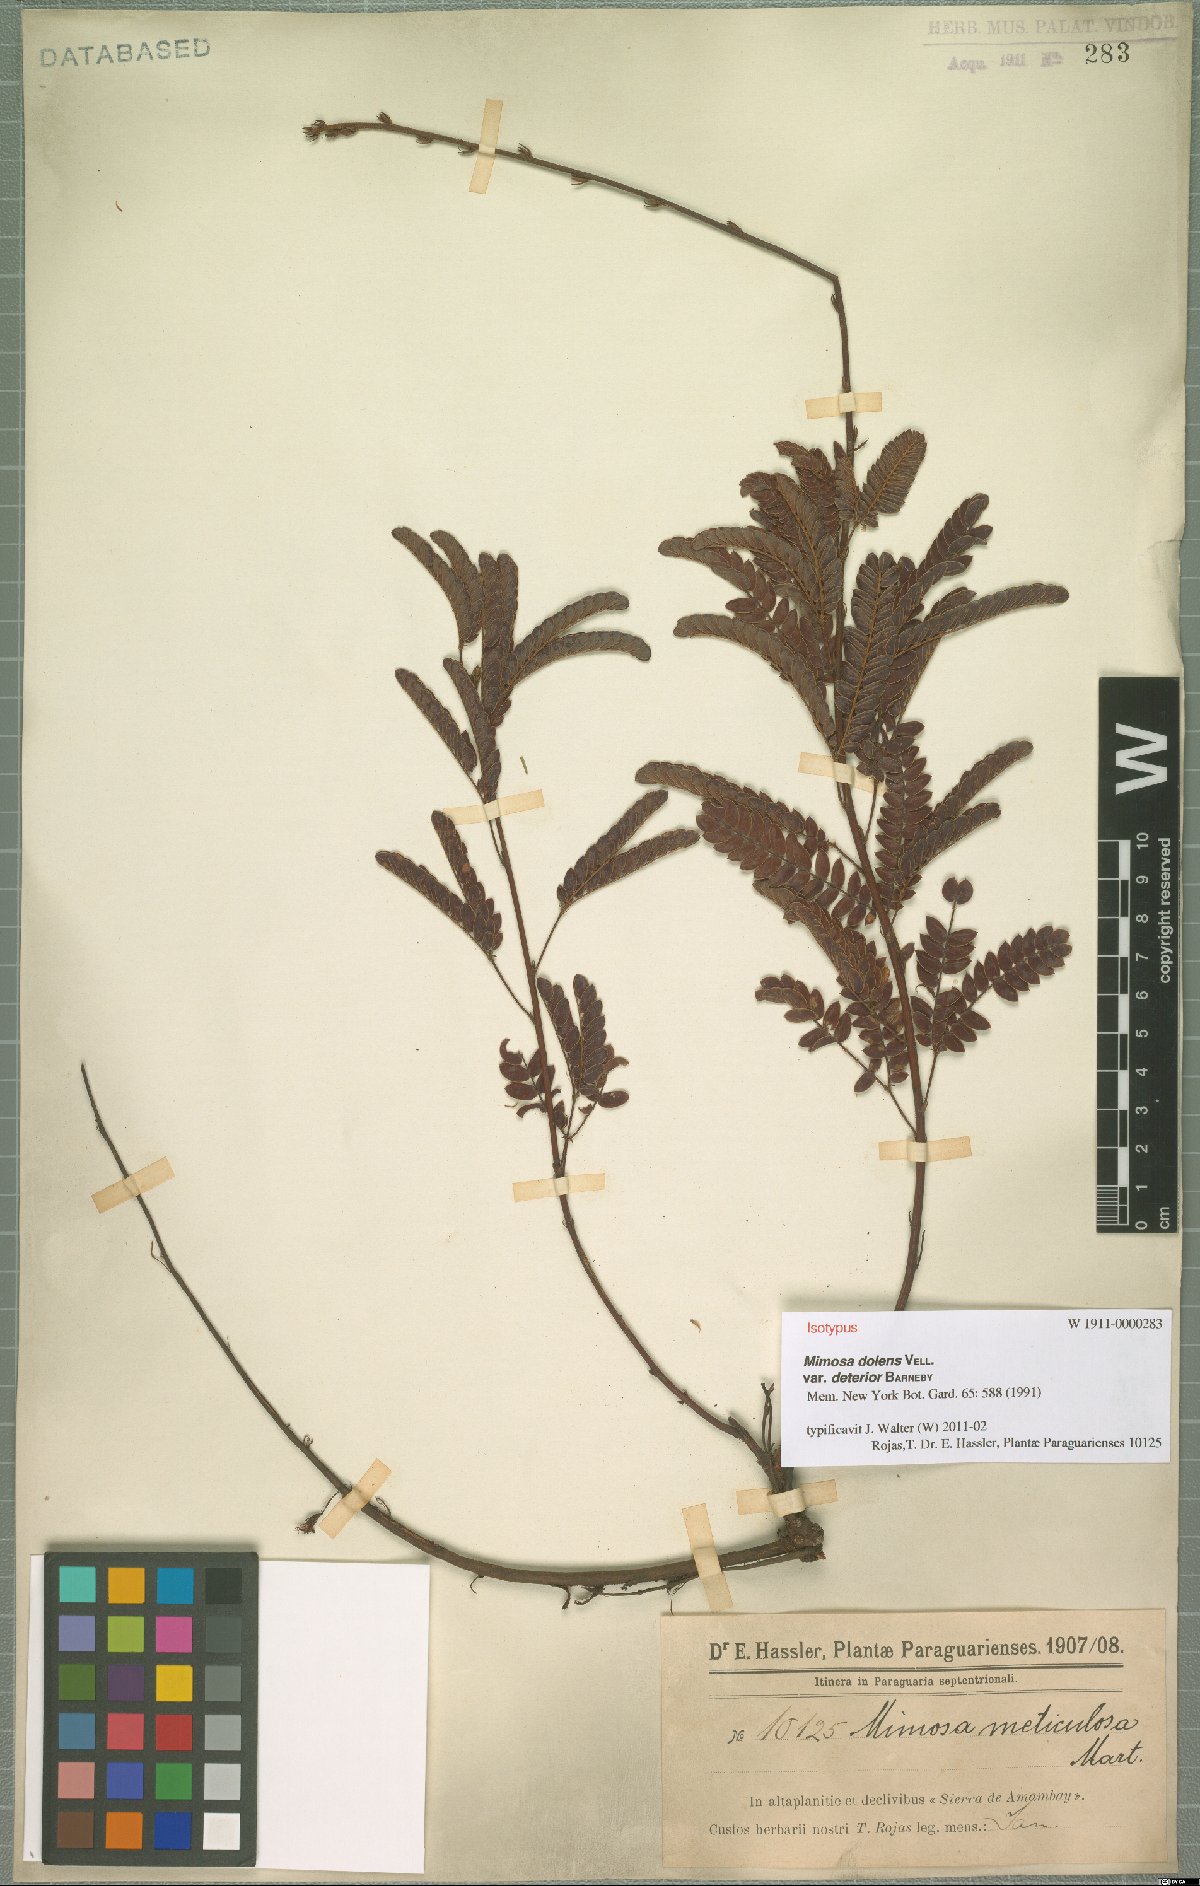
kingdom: Plantae
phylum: Tracheophyta
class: Magnoliopsida
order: Fabales
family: Fabaceae
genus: Mimosa
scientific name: Mimosa dolens
